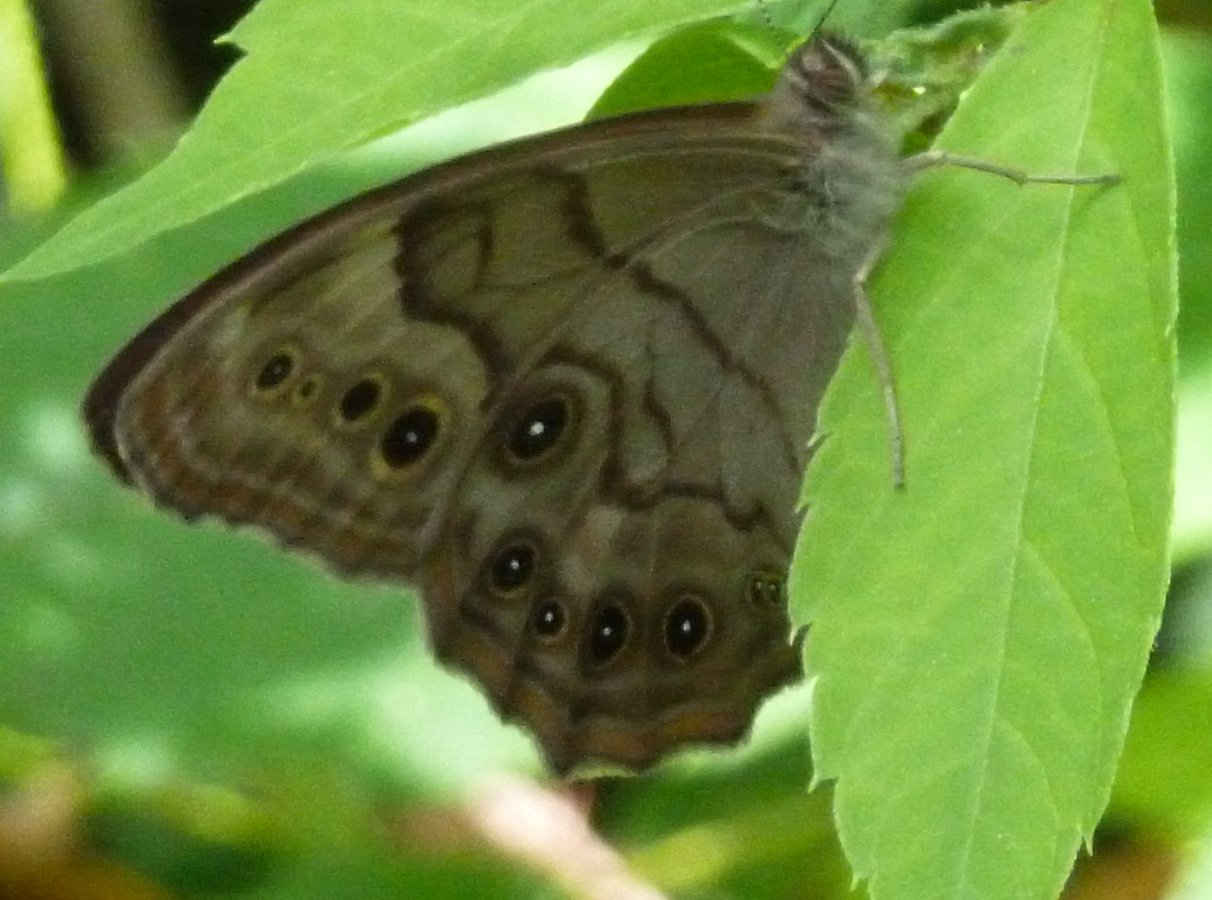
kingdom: Animalia
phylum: Arthropoda
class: Insecta
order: Lepidoptera
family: Nymphalidae
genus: Lethe
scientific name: Lethe anthedon
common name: Northern Pearly-Eye
